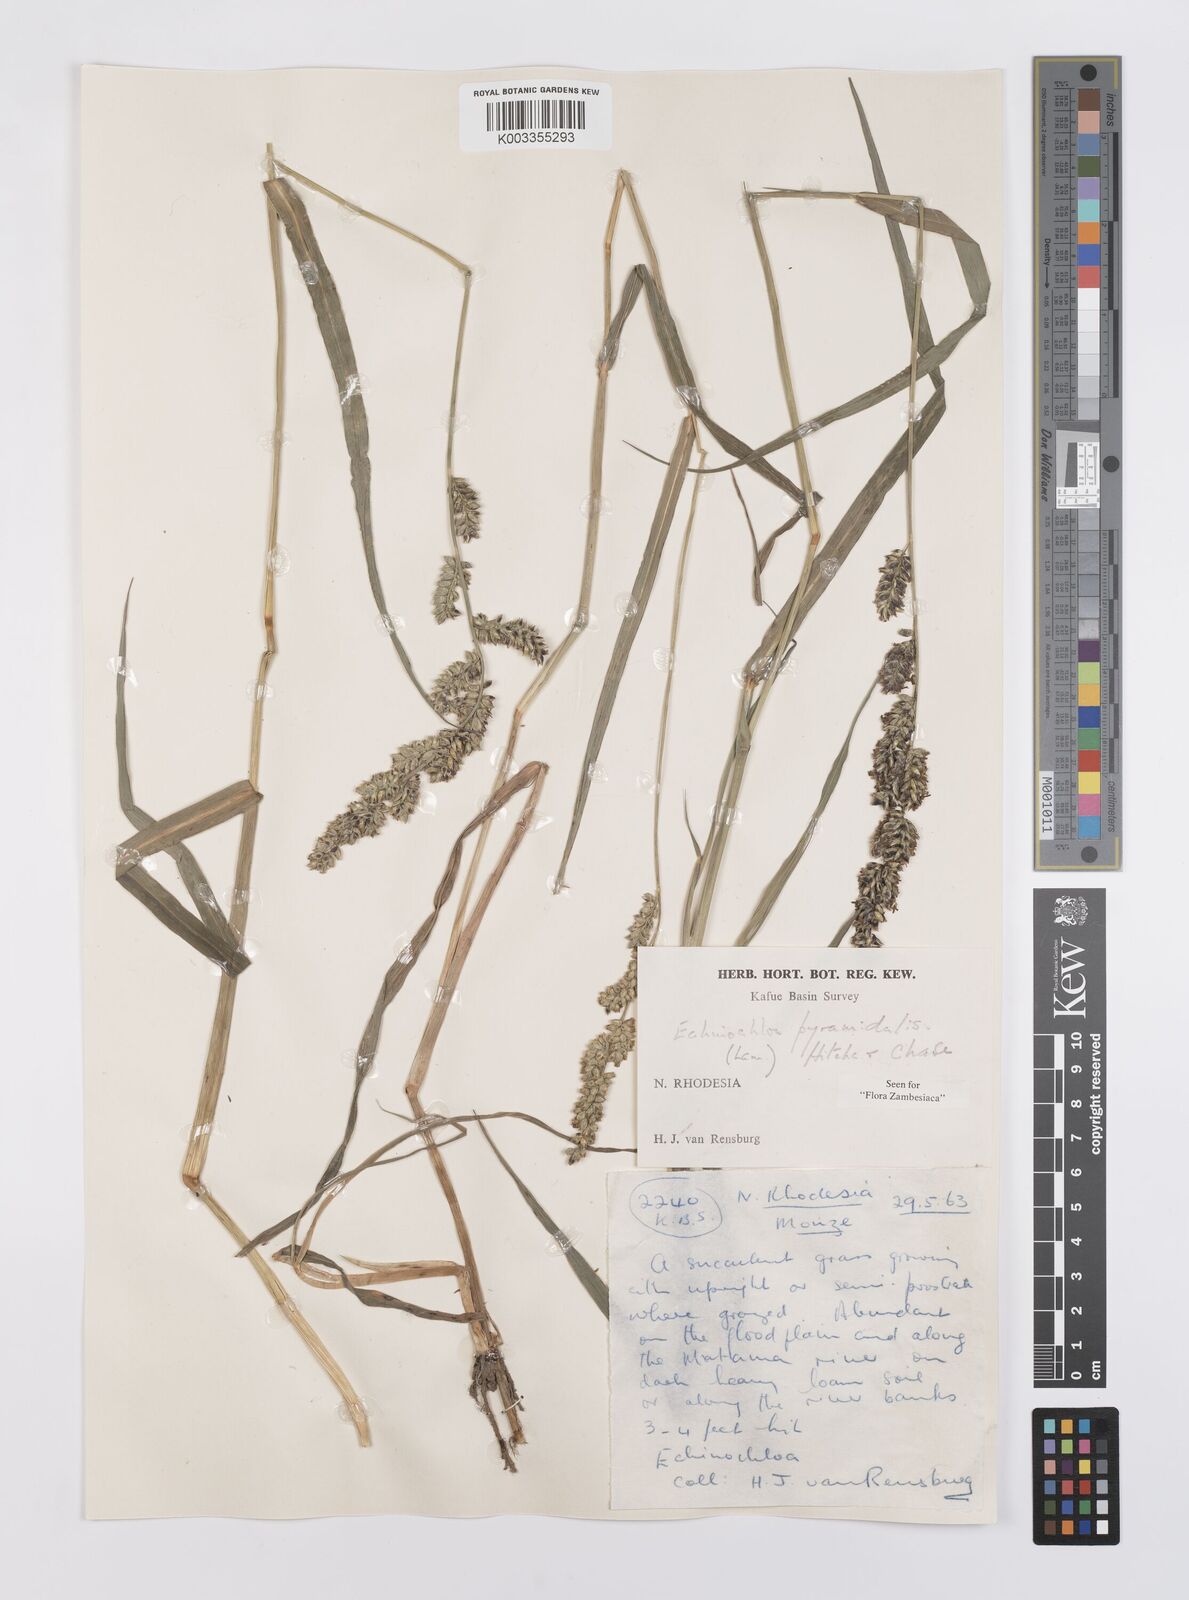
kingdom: Plantae
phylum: Tracheophyta
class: Liliopsida
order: Poales
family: Poaceae
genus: Echinochloa
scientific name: Echinochloa pyramidalis
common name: Antelope grass
